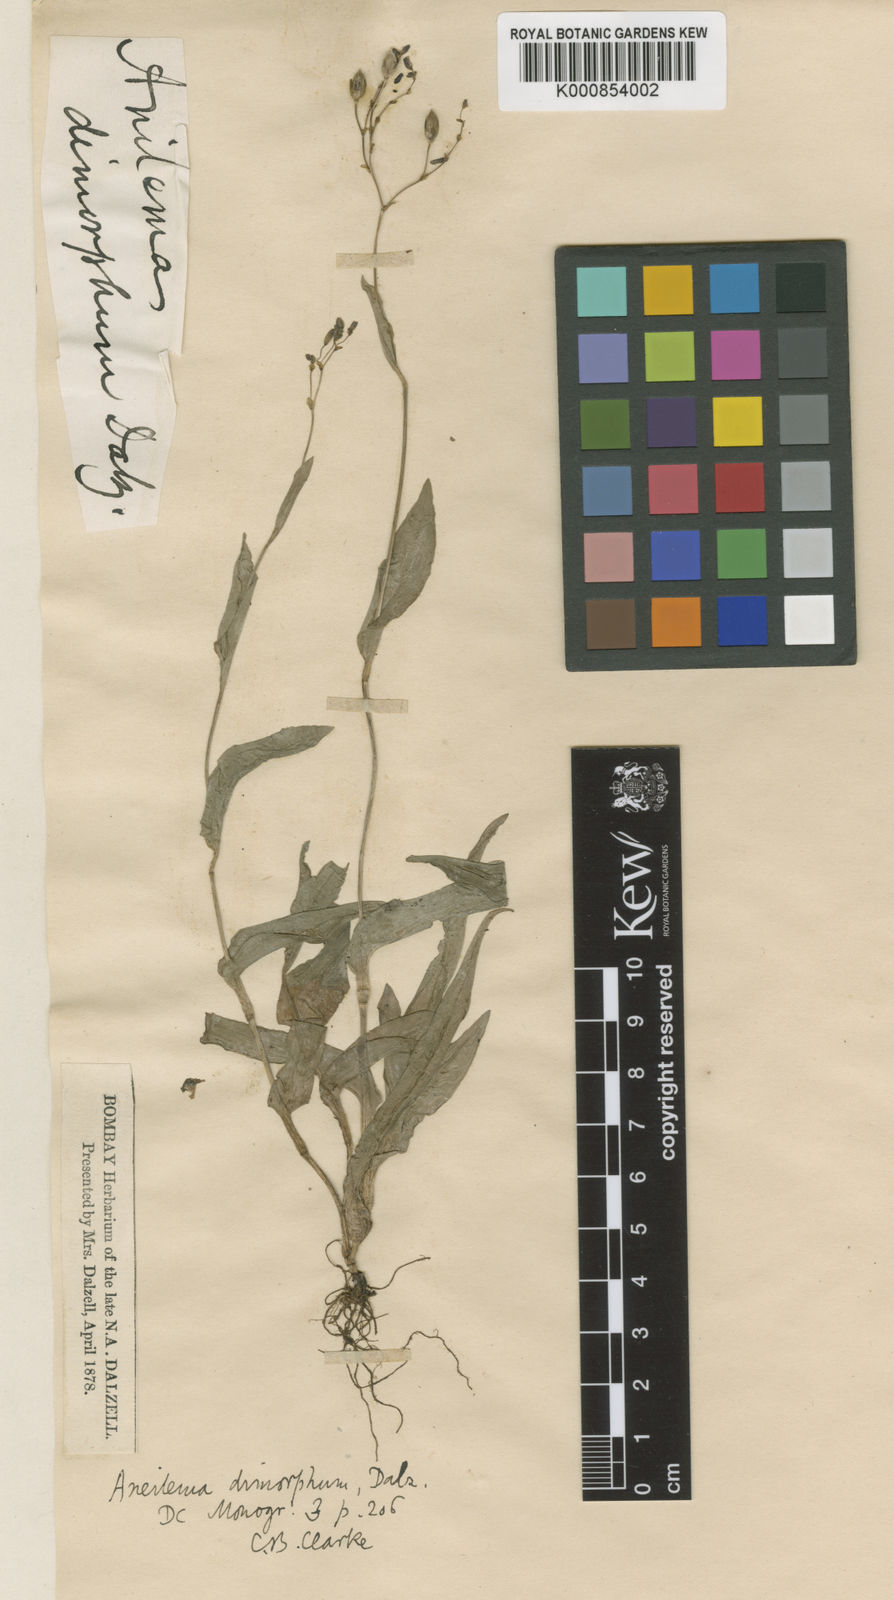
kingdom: Plantae
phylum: Tracheophyta
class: Liliopsida
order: Commelinales
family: Commelinaceae
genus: Murdannia
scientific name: Murdannia
